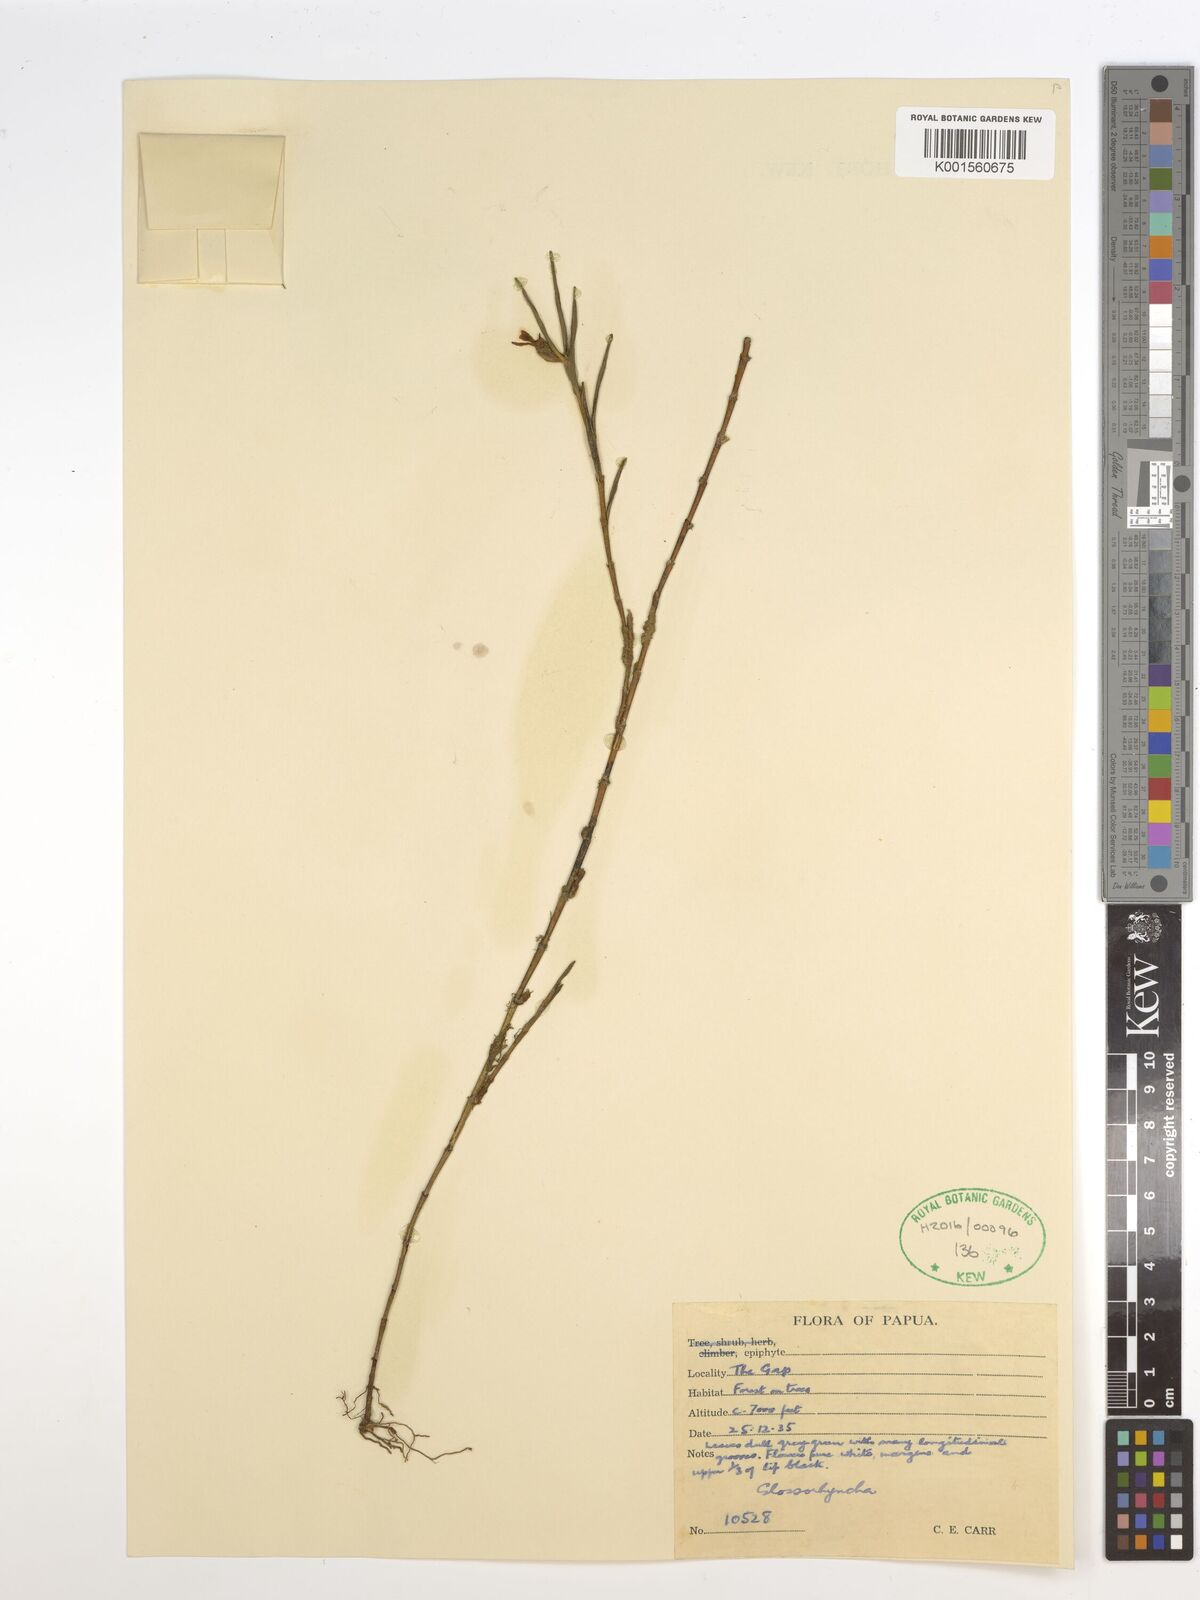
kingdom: Plantae
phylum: Tracheophyta
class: Liliopsida
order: Asparagales
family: Orchidaceae
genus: Glomera
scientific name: Glomera
